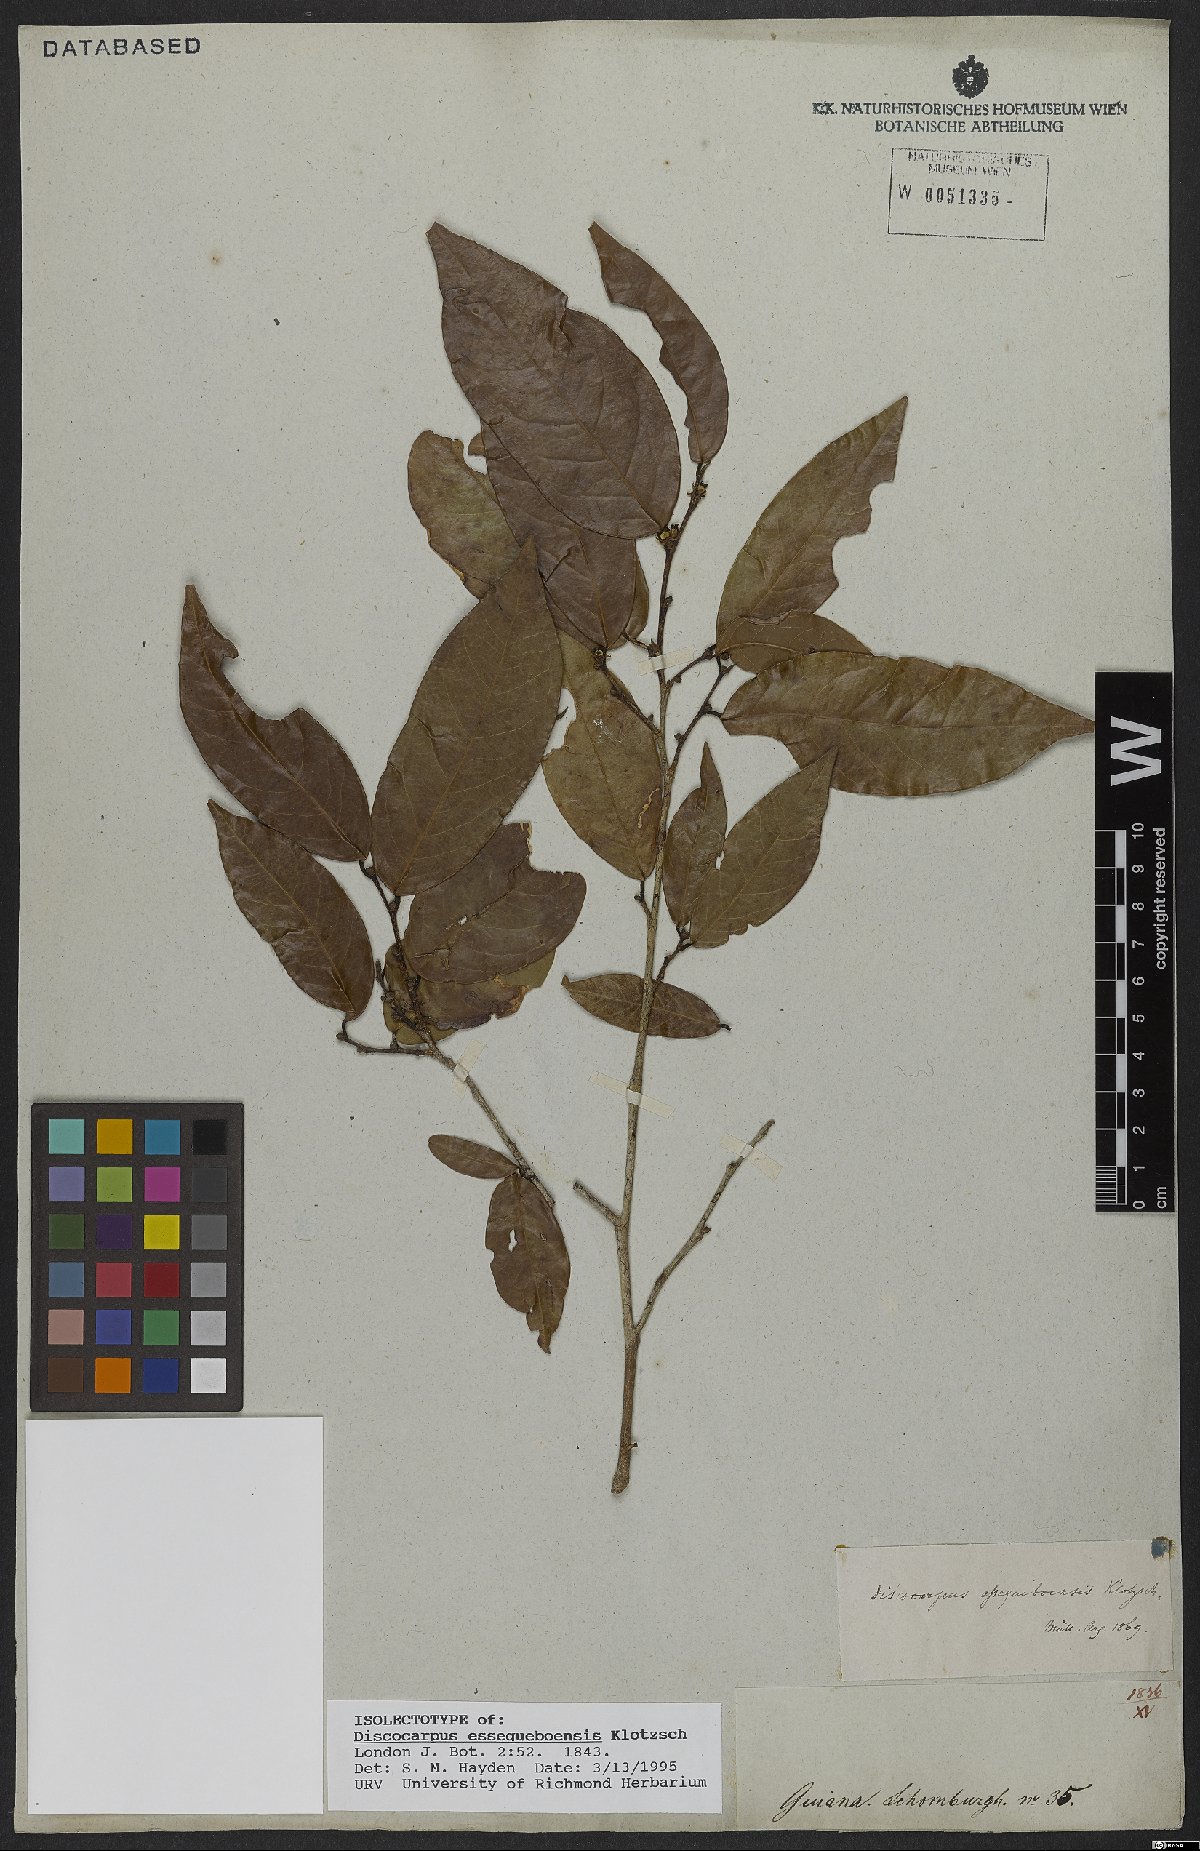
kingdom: Plantae
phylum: Tracheophyta
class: Magnoliopsida
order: Malpighiales
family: Phyllanthaceae
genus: Discocarpus
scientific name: Discocarpus essequeboensis
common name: Sqaure-wood
